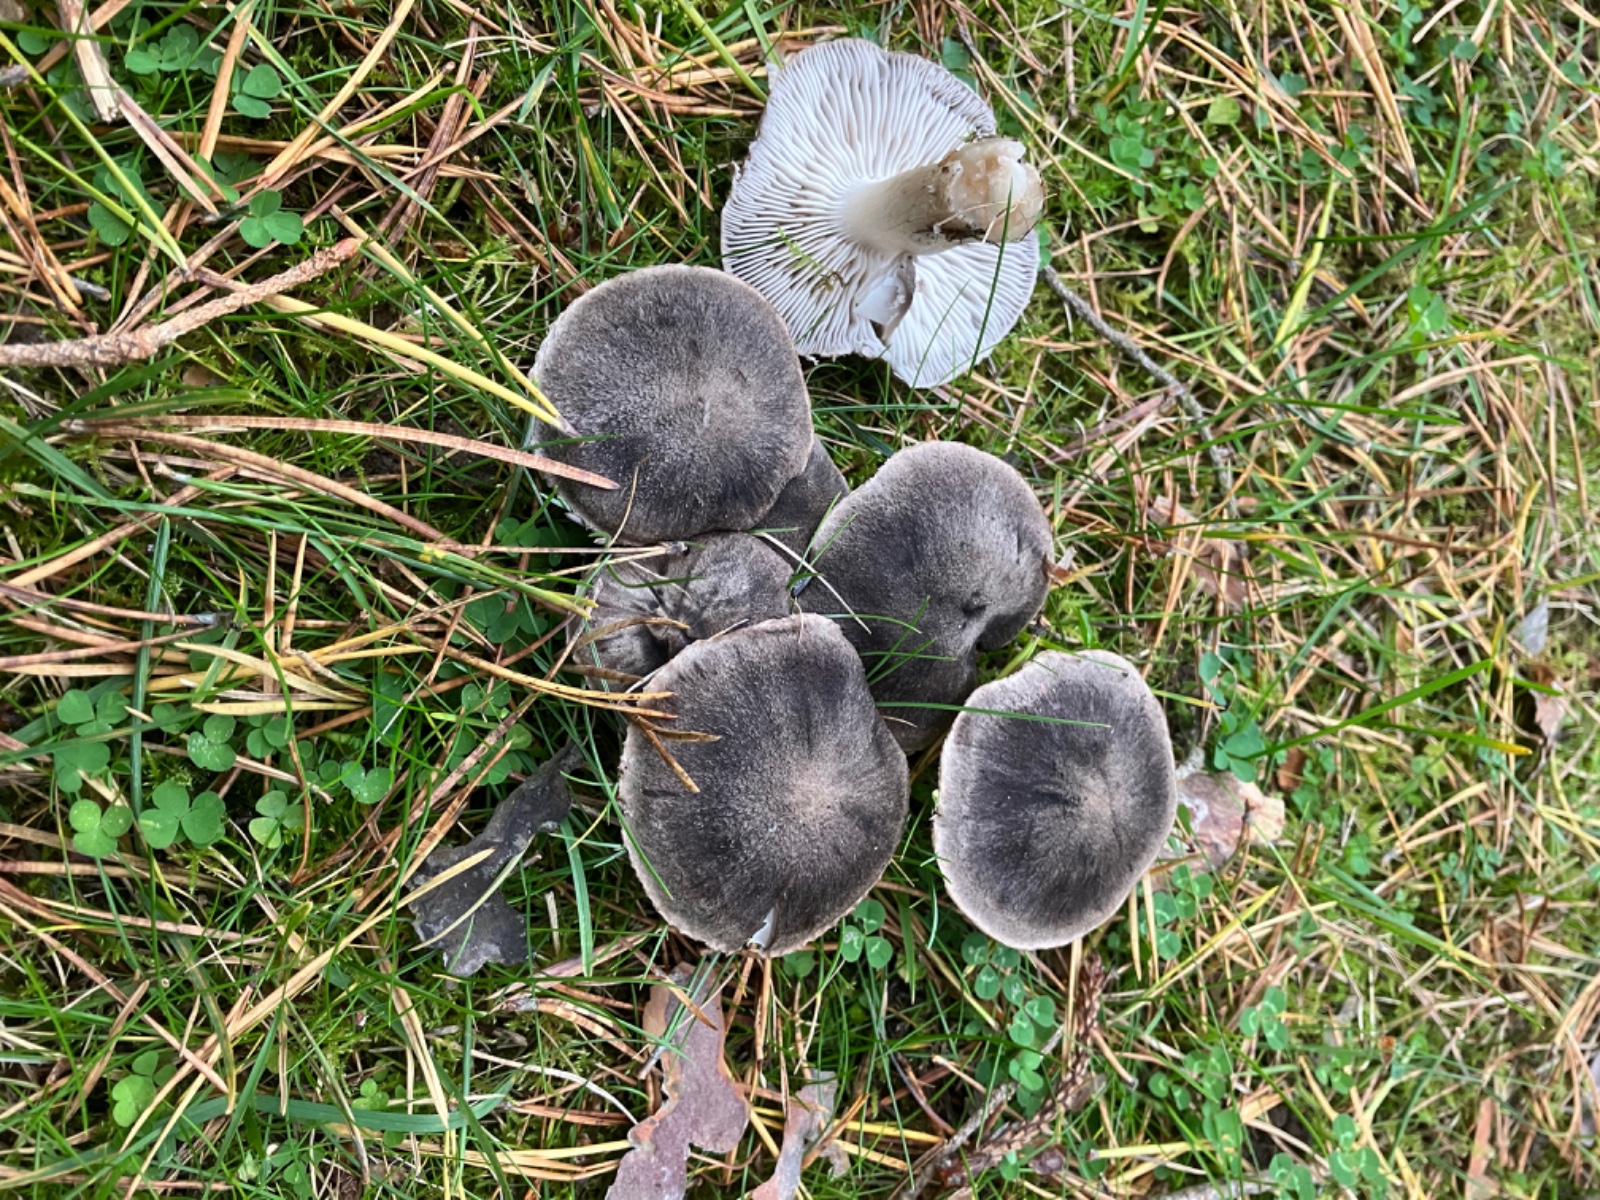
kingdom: Fungi
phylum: Basidiomycota
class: Agaricomycetes
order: Agaricales
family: Tricholomataceae
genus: Tricholoma
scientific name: Tricholoma terreum
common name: jordfarvet ridderhat
